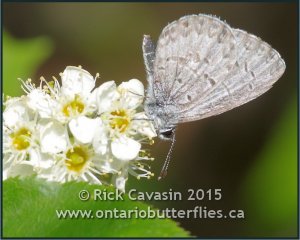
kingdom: Animalia
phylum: Arthropoda
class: Insecta
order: Lepidoptera
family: Lycaenidae
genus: Celastrina
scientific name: Celastrina lucia
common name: Northern Spring Azure
